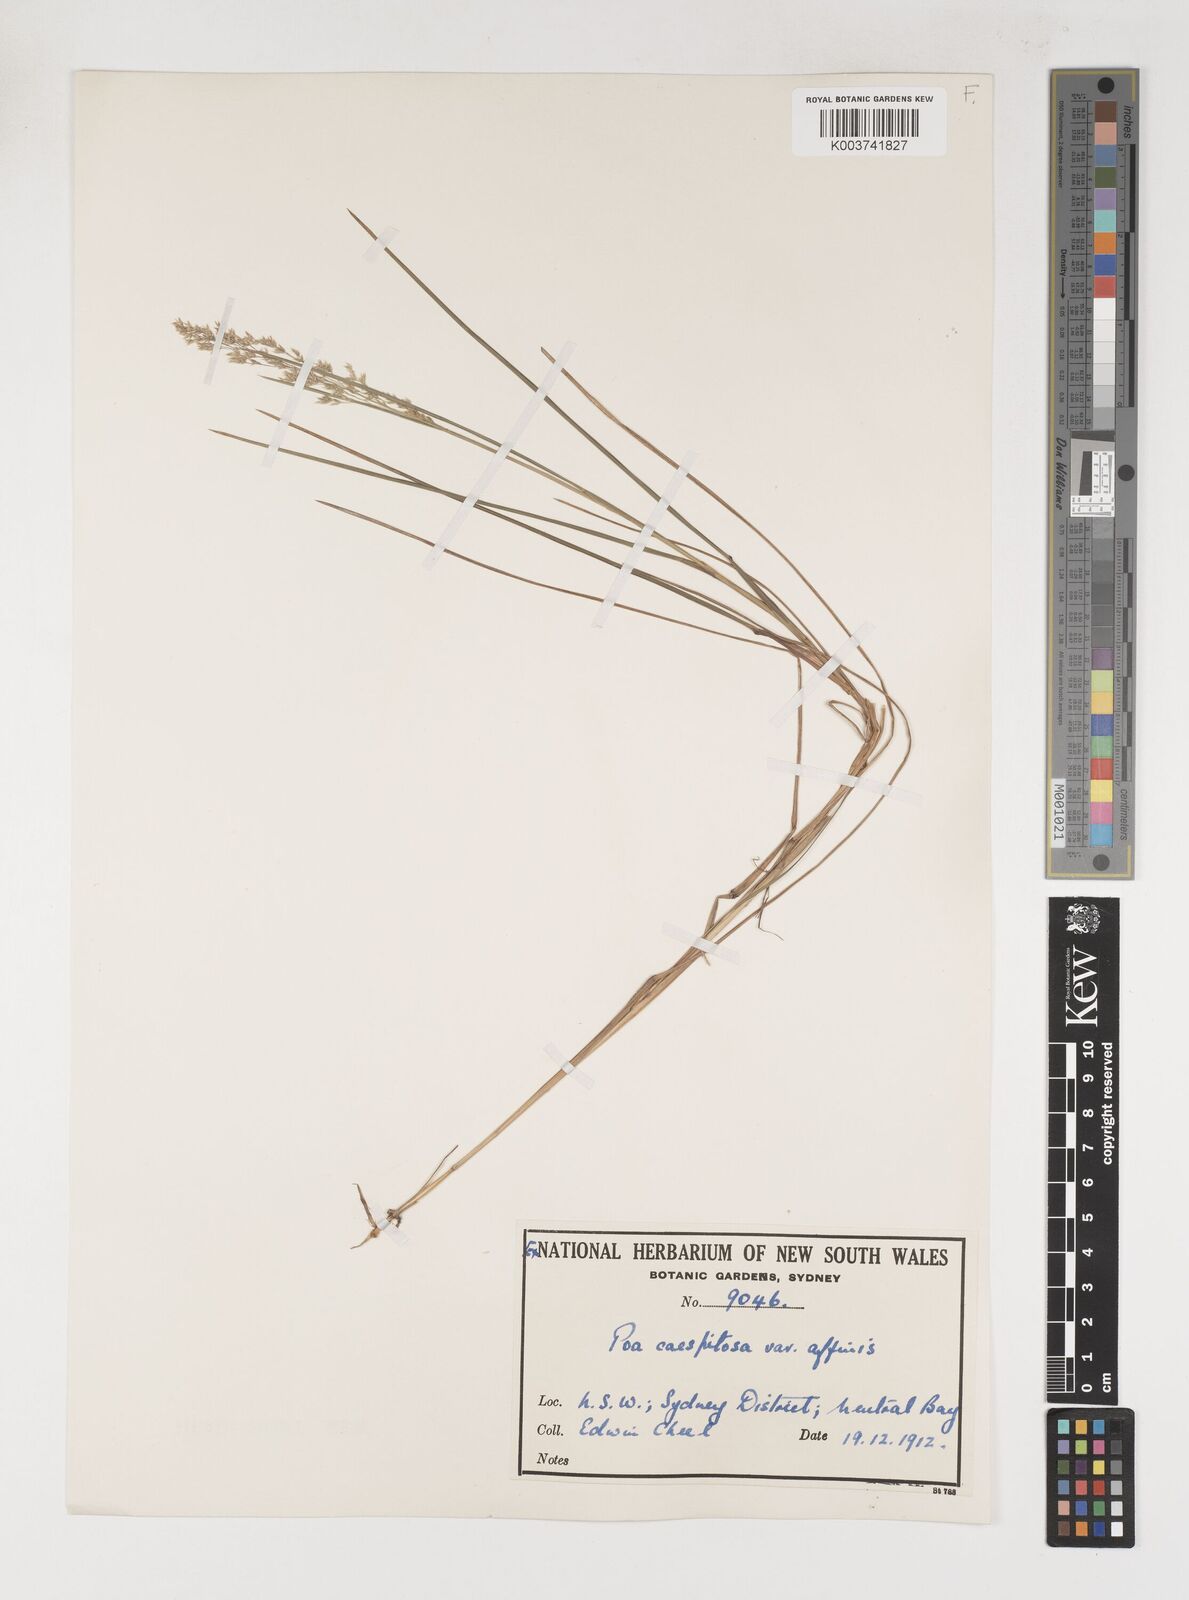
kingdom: Plantae
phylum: Tracheophyta
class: Liliopsida
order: Poales
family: Poaceae
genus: Poa
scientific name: Poa sieberiana
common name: Tussock poa
